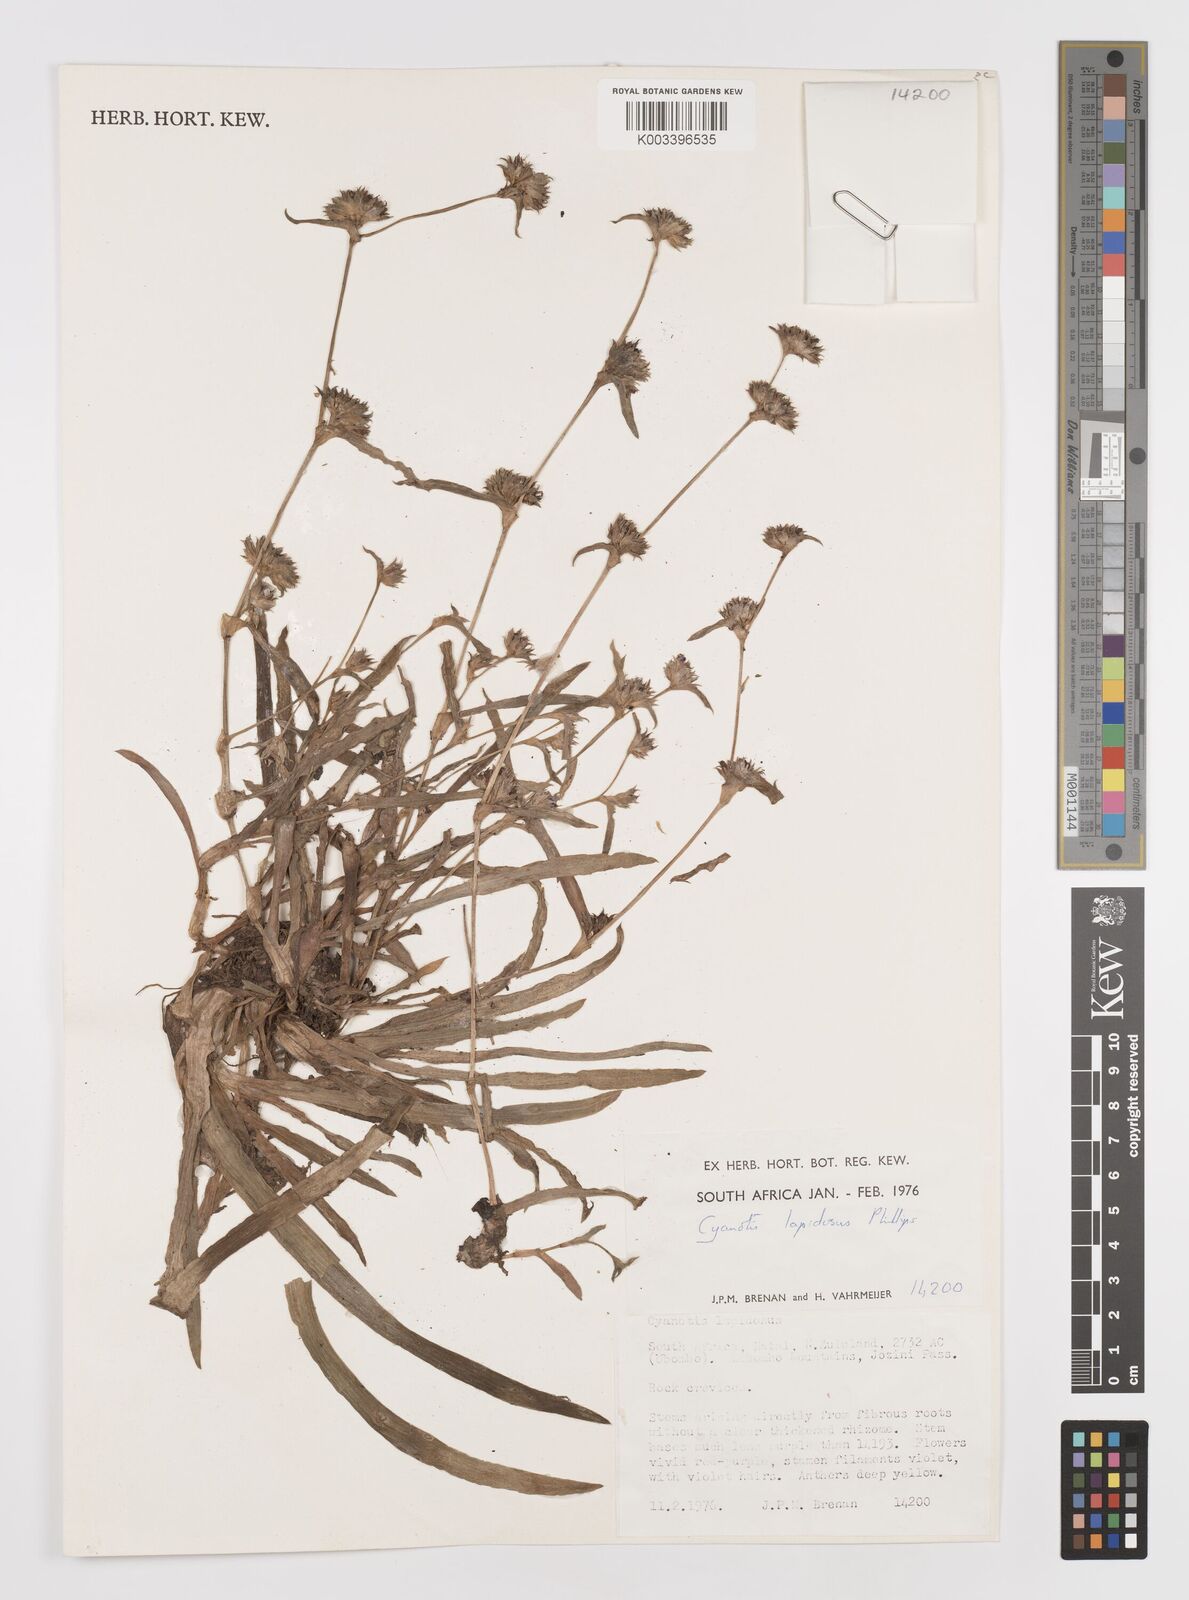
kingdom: Plantae
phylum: Tracheophyta
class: Liliopsida
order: Commelinales
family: Commelinaceae
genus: Cyanotis
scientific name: Cyanotis lapidosa
